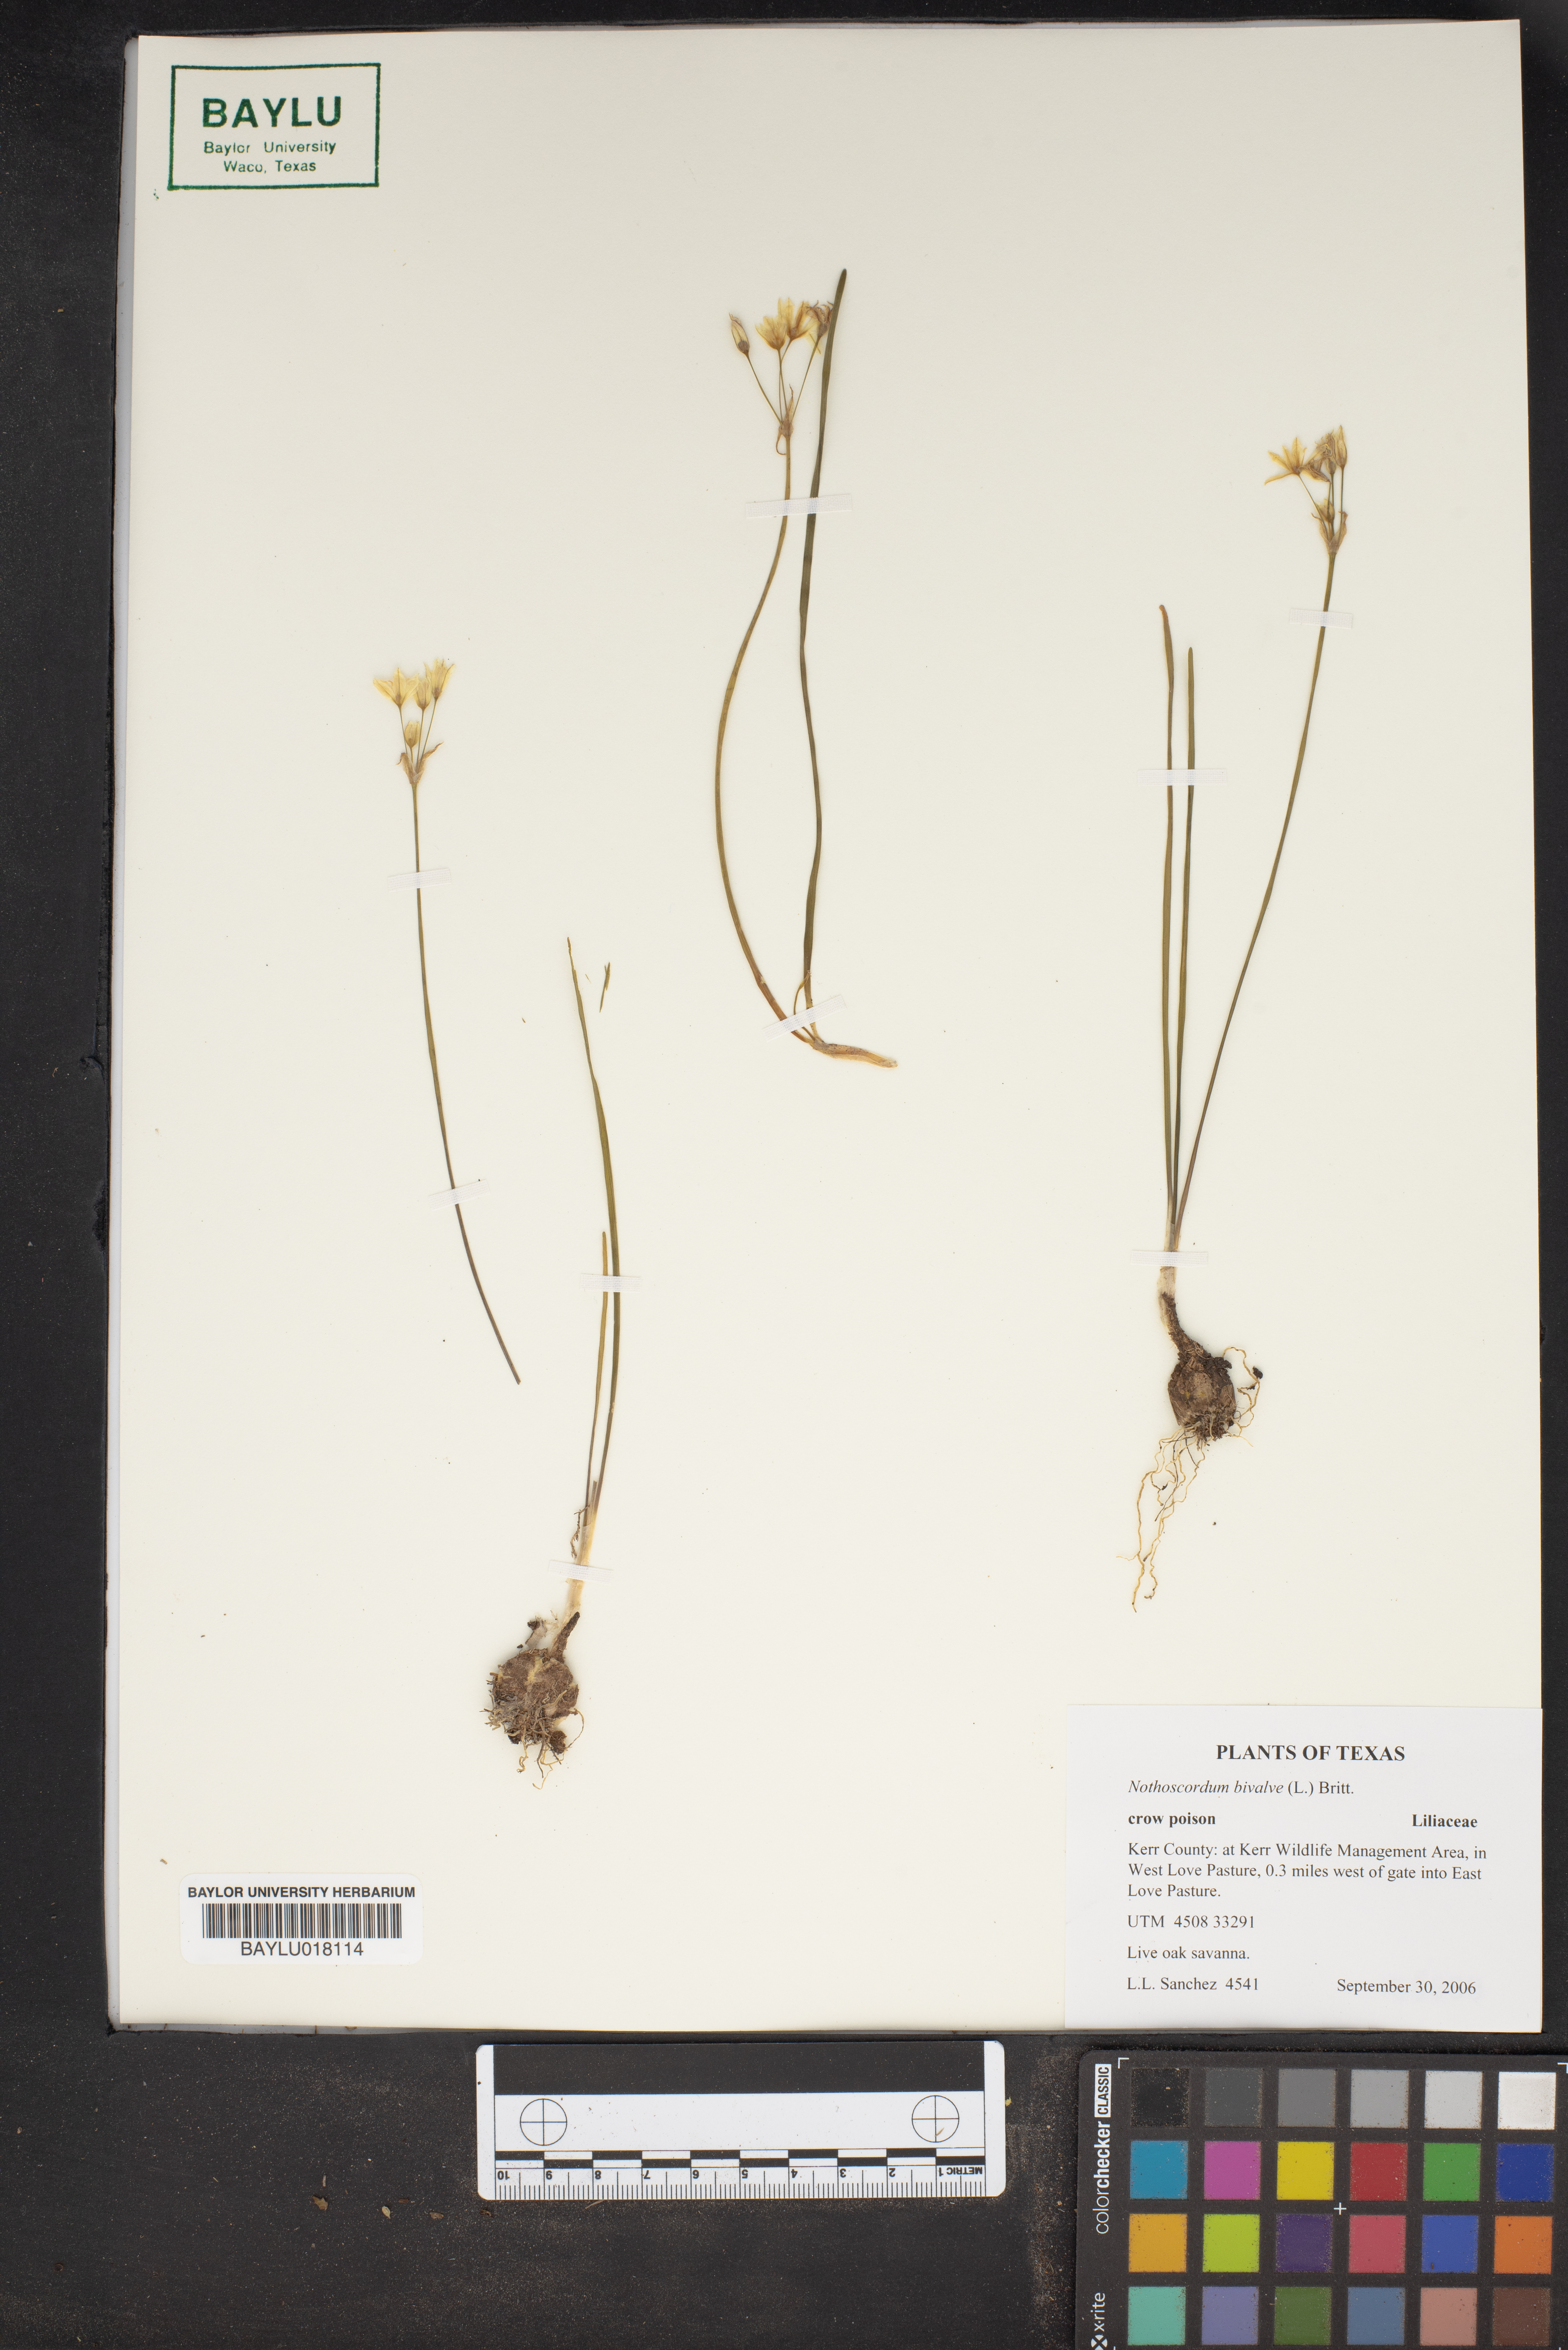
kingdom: Plantae
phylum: Tracheophyta
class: Liliopsida
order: Asparagales
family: Amaryllidaceae
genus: Nothoscordum
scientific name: Nothoscordum bivalve
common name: Crow-poison
